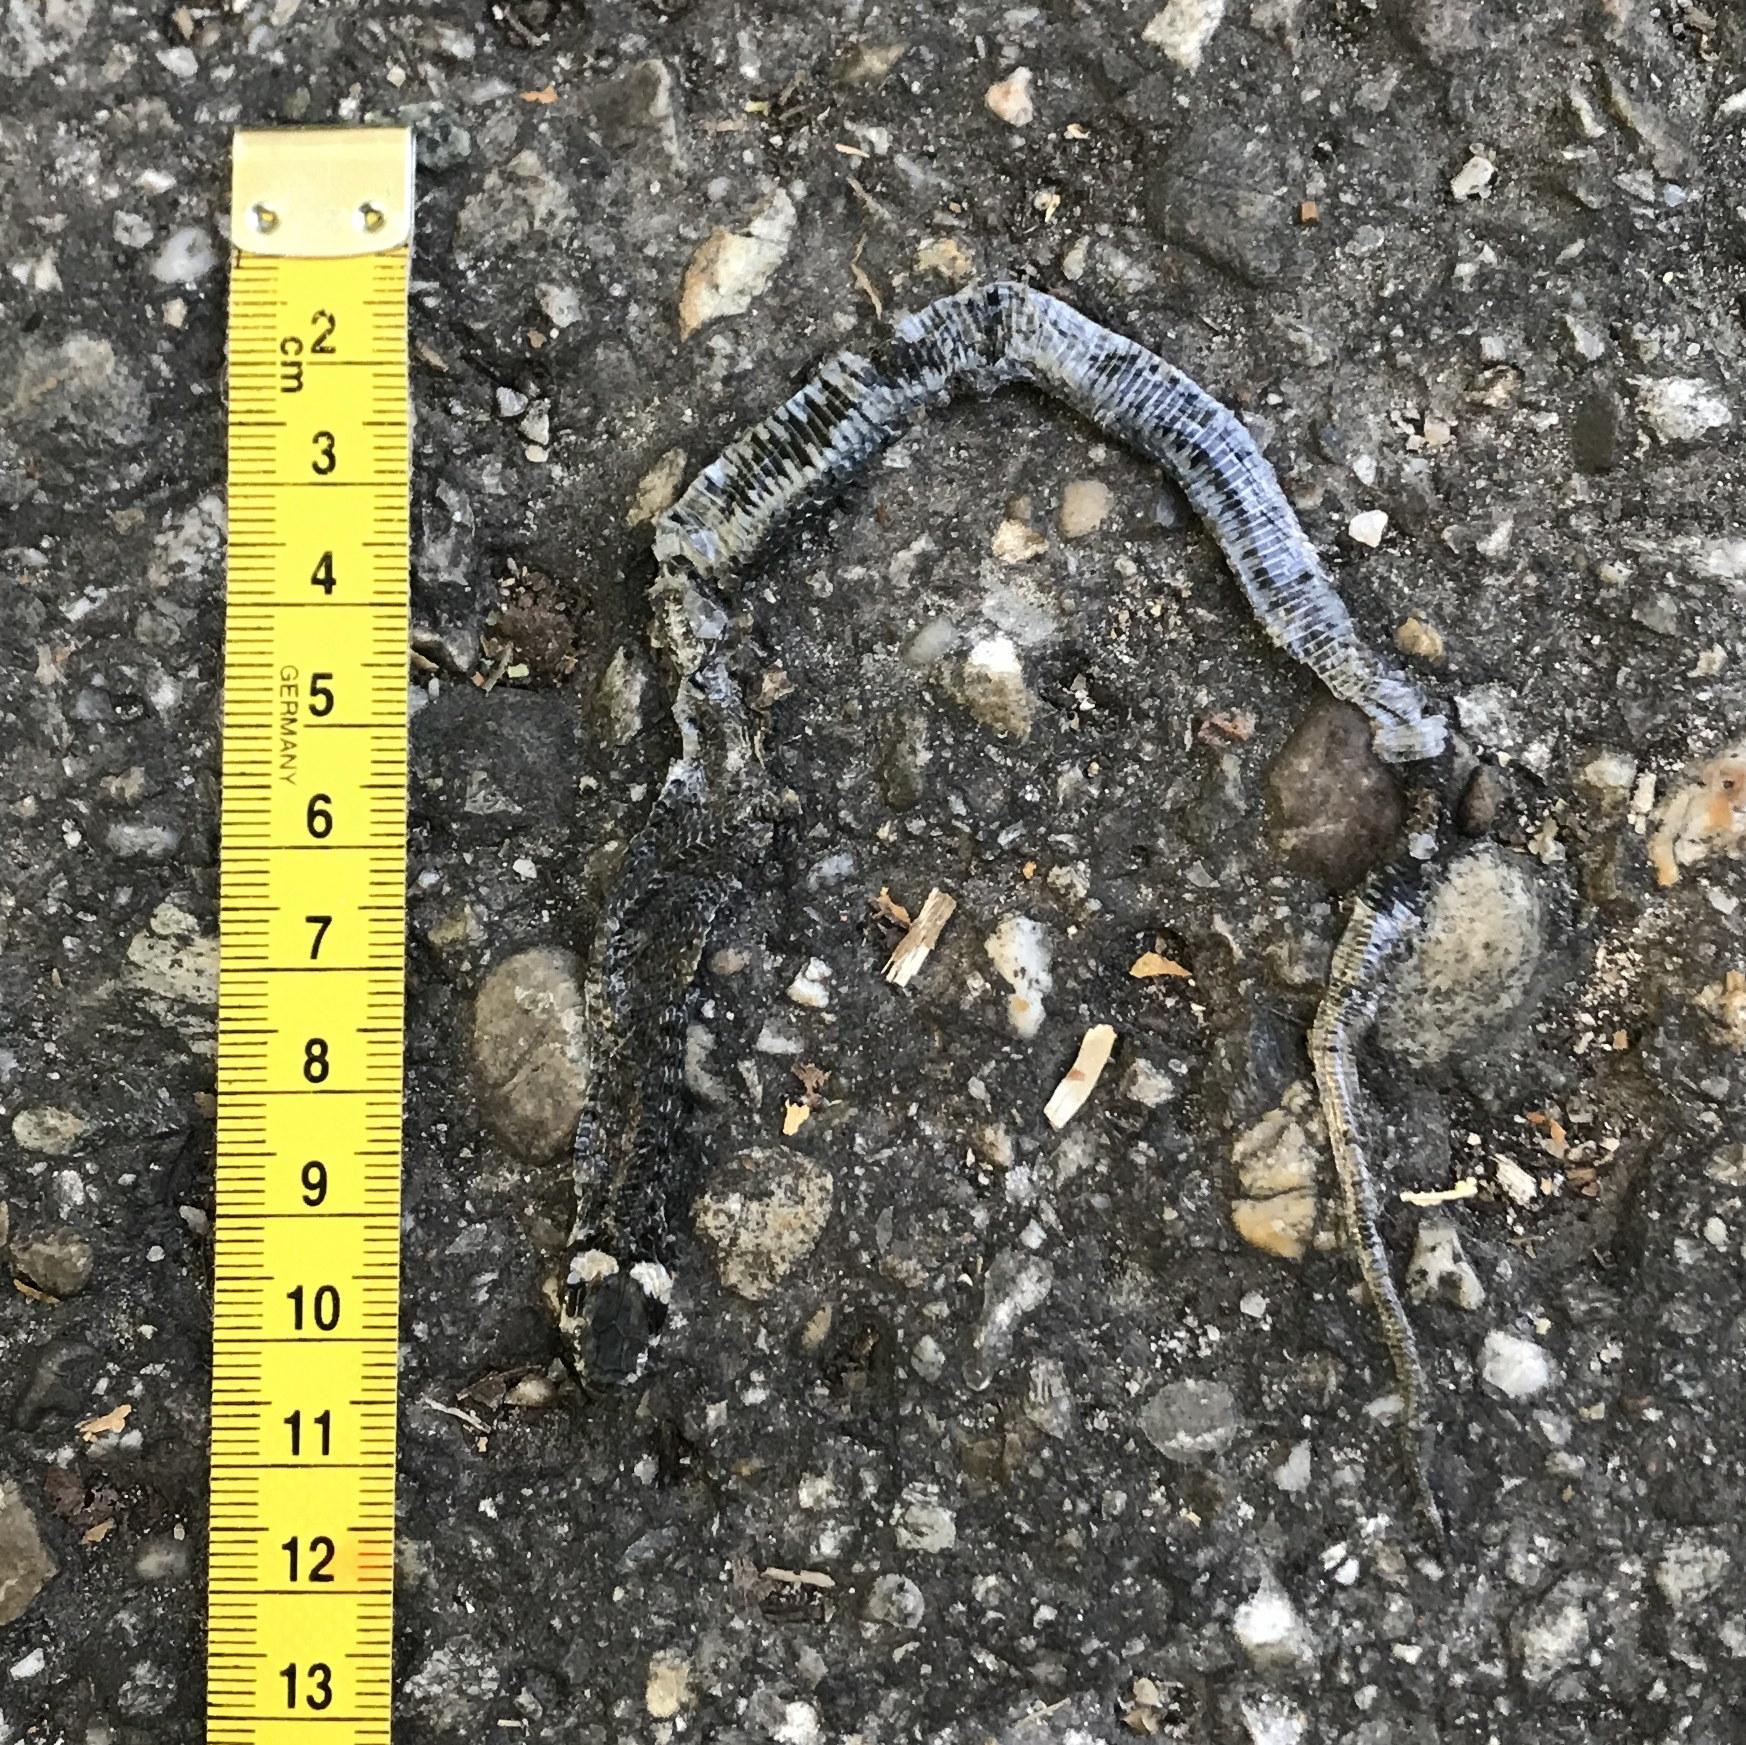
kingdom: Animalia
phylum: Chordata
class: Squamata
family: Colubridae
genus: Natrix
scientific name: Natrix natrix
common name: Grass snake
